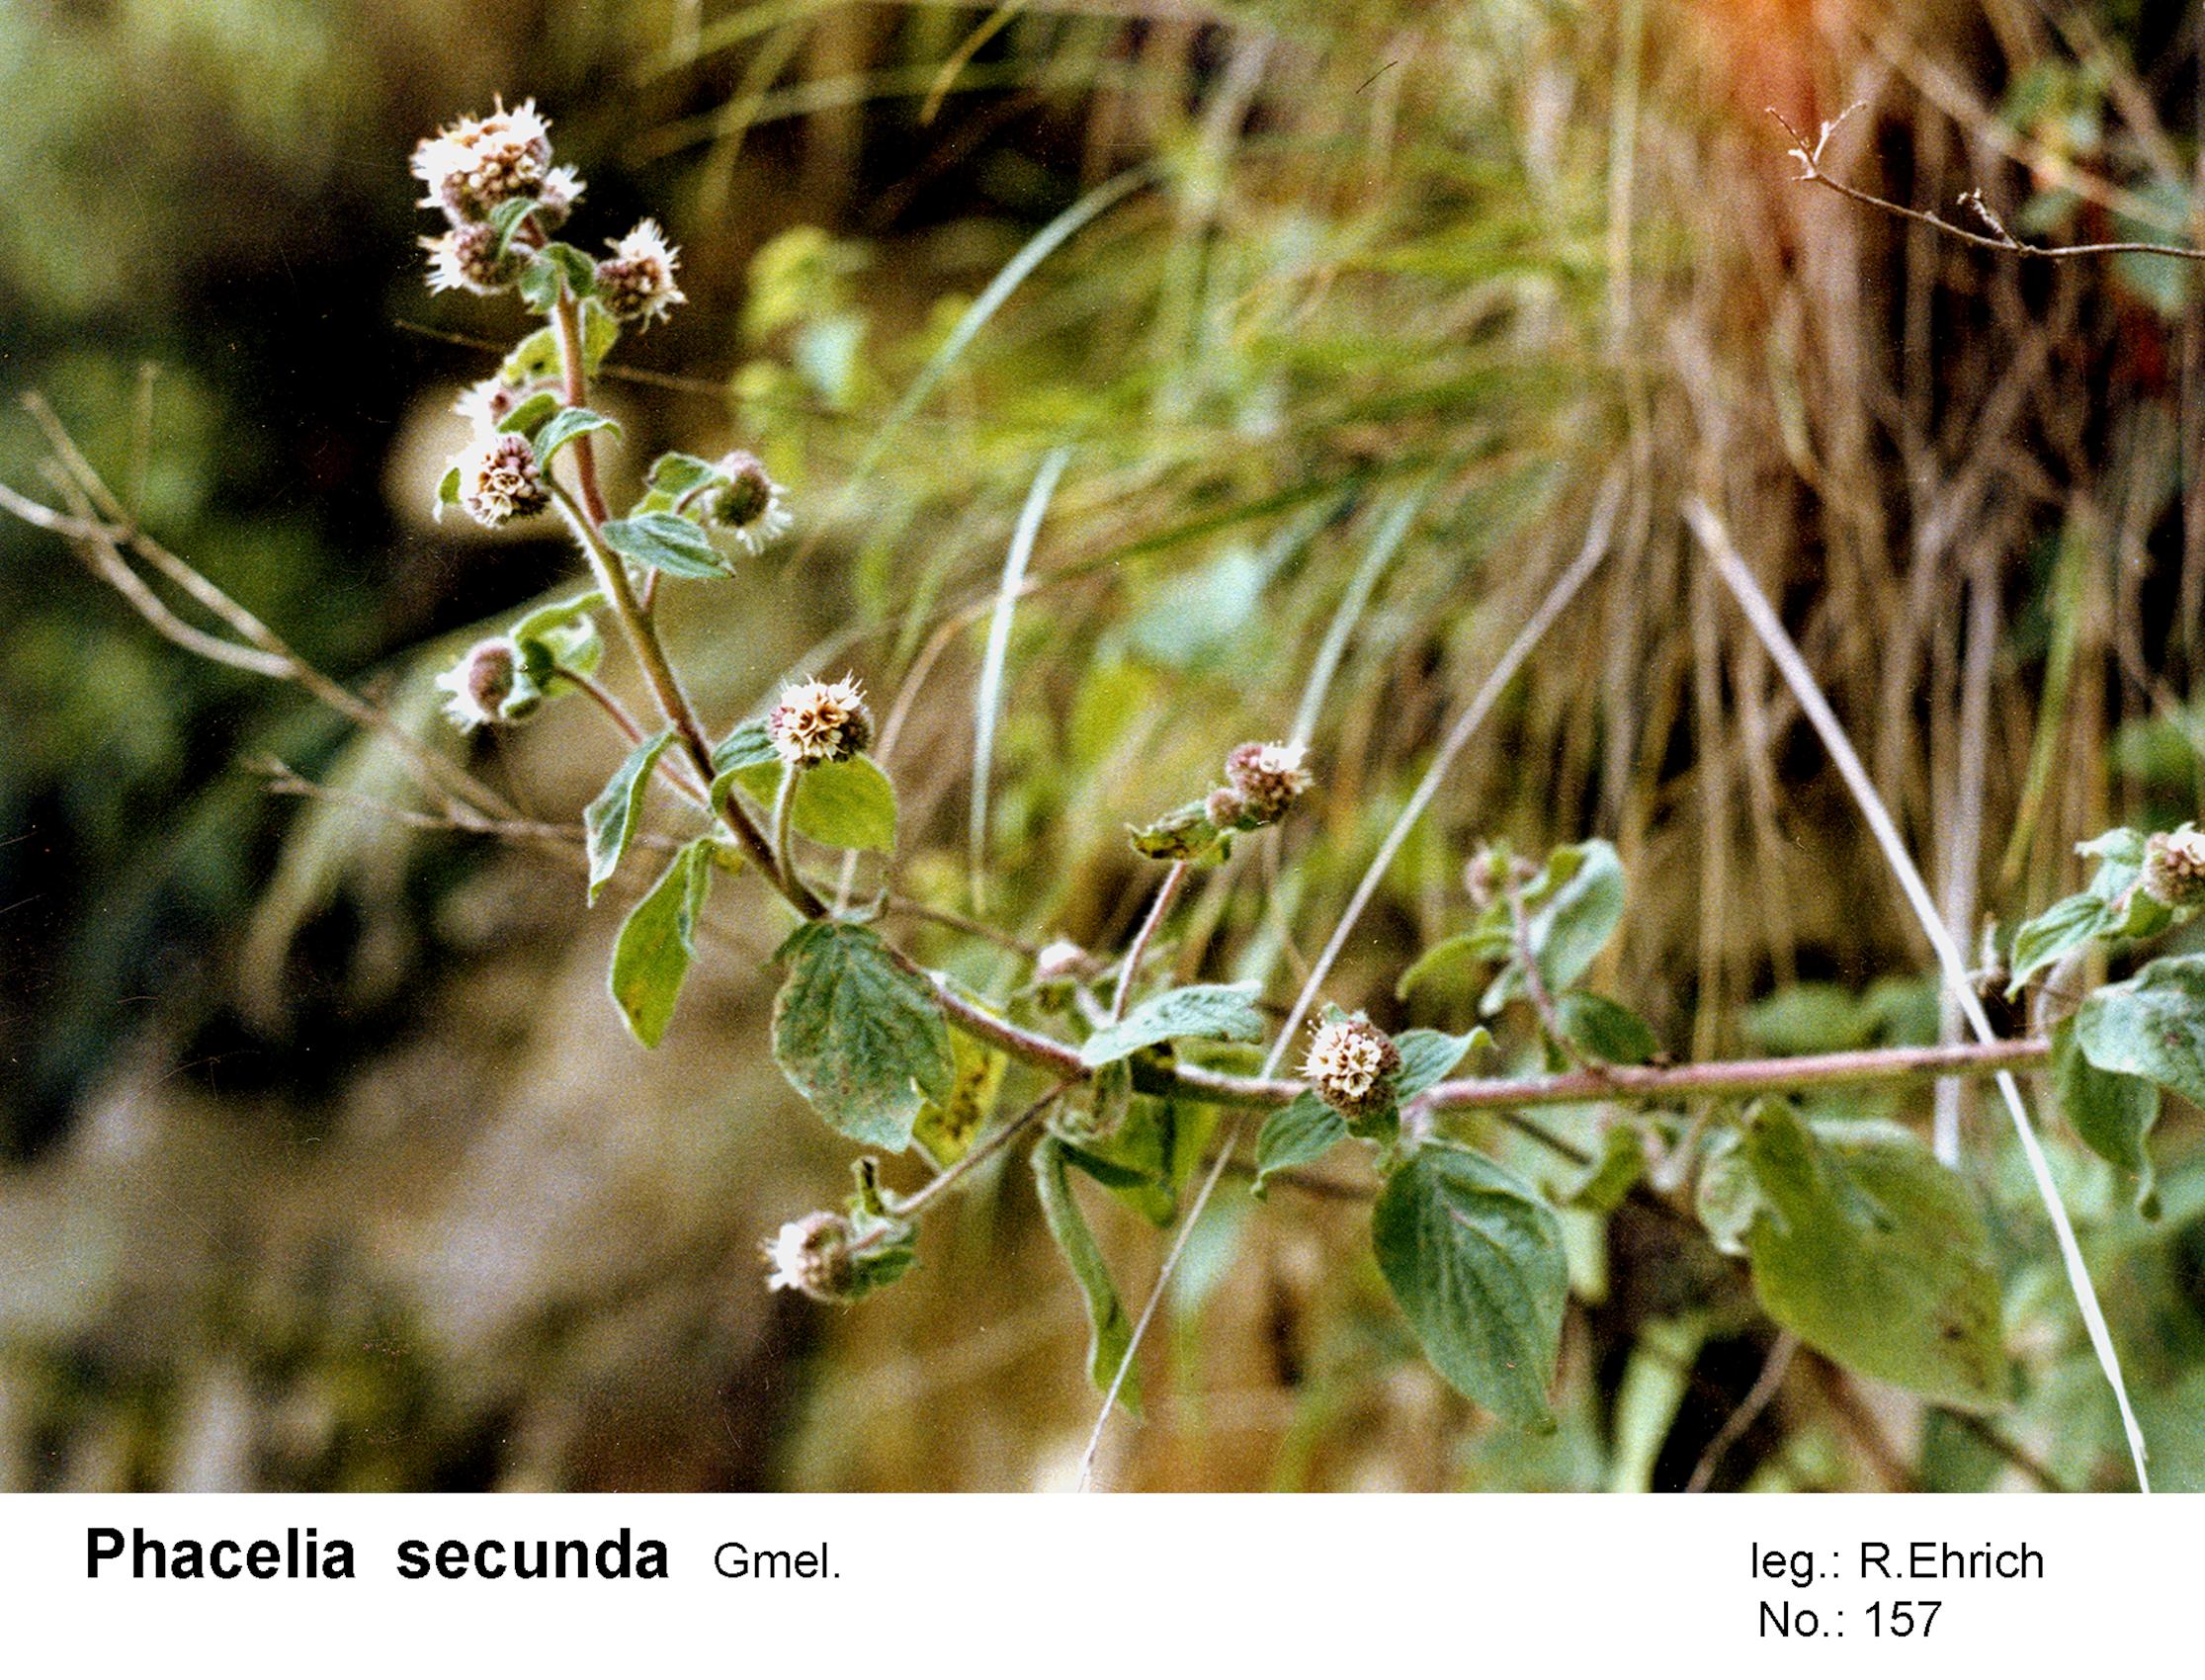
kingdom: Plantae
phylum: Tracheophyta
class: Magnoliopsida
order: Boraginales
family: Hydrophyllaceae
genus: Phacelia
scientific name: Phacelia secunda
